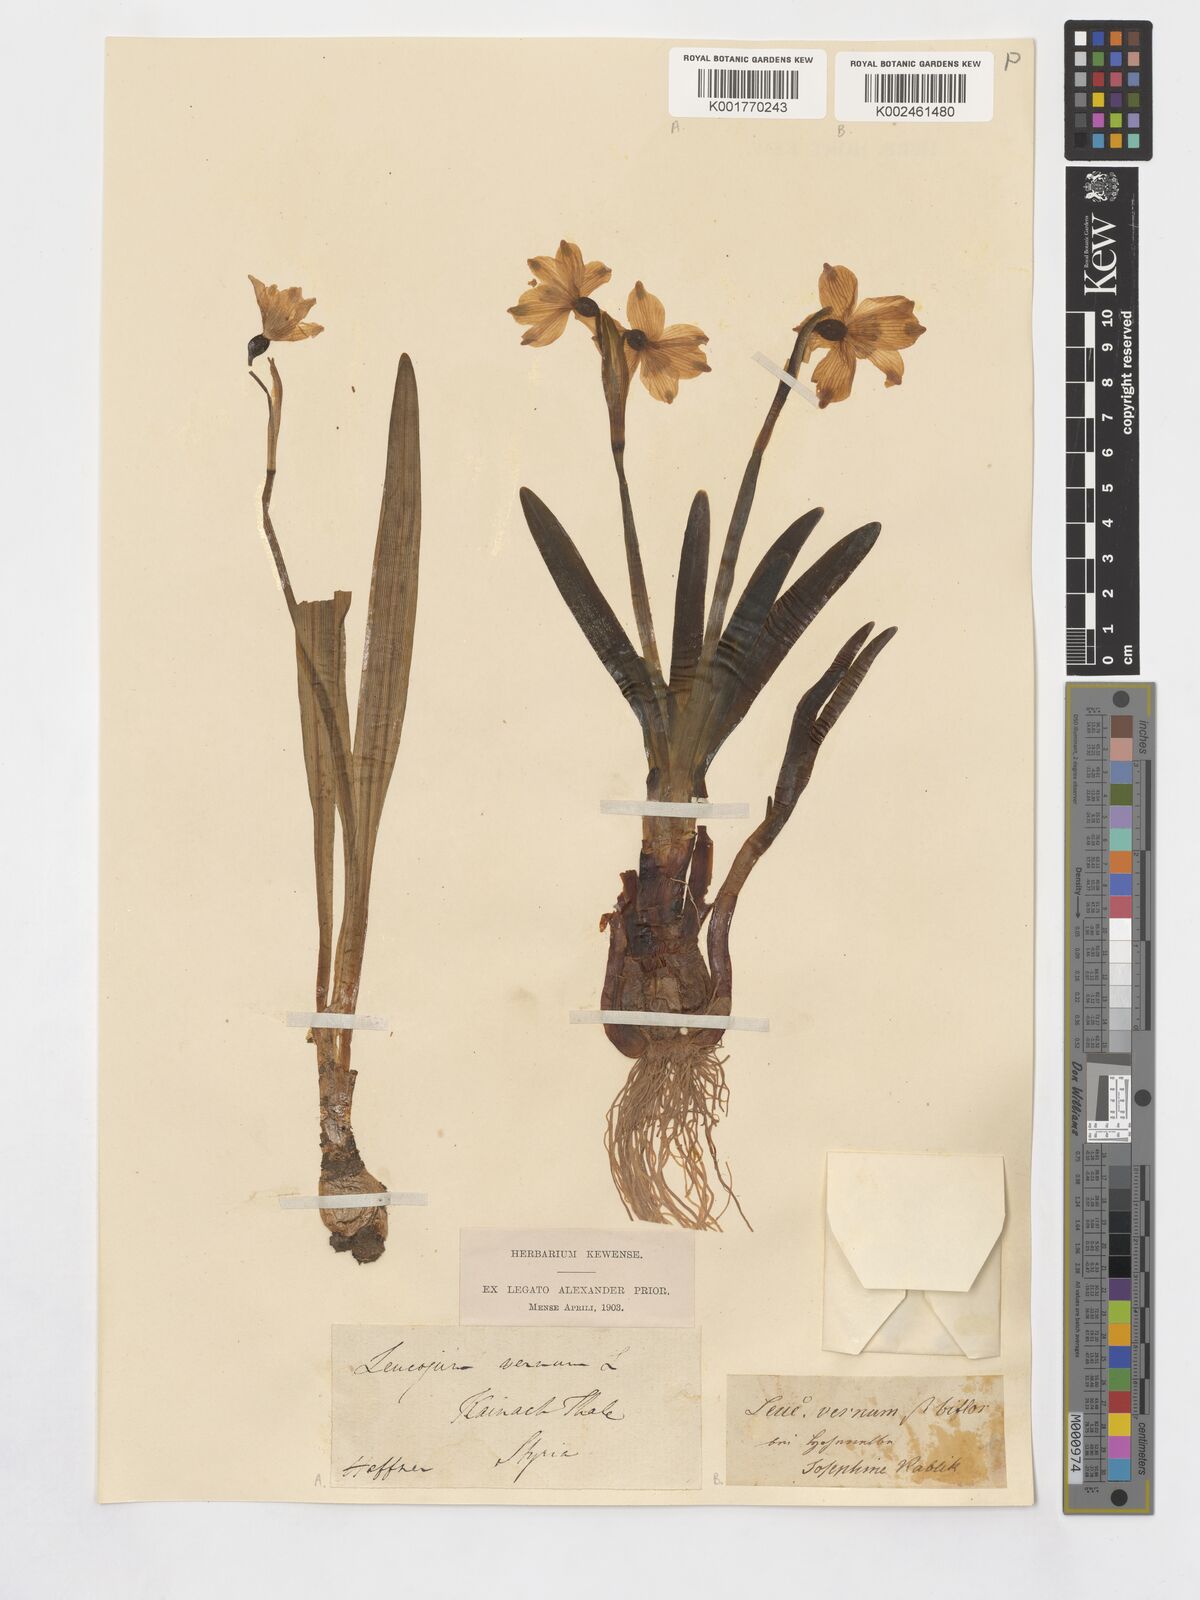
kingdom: Plantae
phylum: Tracheophyta
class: Liliopsida
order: Asparagales
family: Amaryllidaceae
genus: Leucojum
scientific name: Leucojum vernum
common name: Spring snowflake
